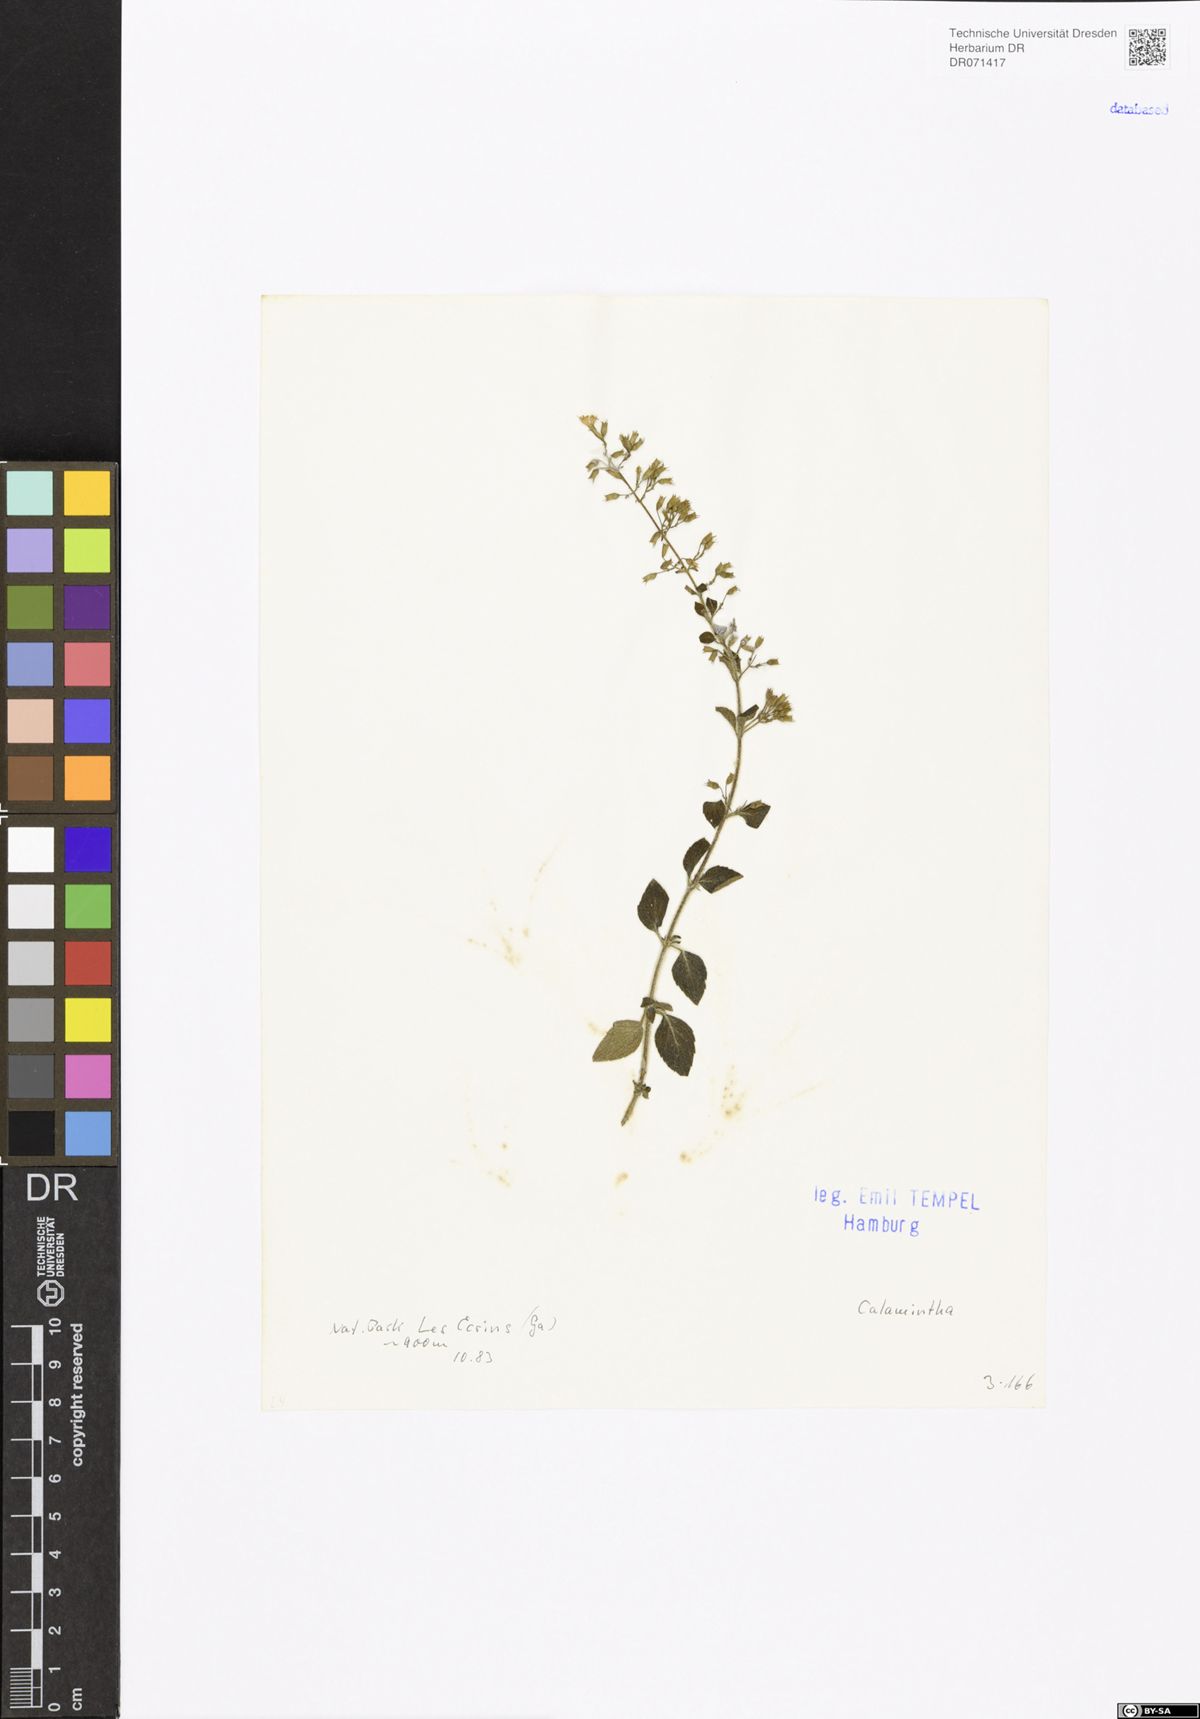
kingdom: Plantae
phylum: Tracheophyta
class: Magnoliopsida
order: Lamiales
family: Lamiaceae
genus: Calamintha
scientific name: Calamintha
